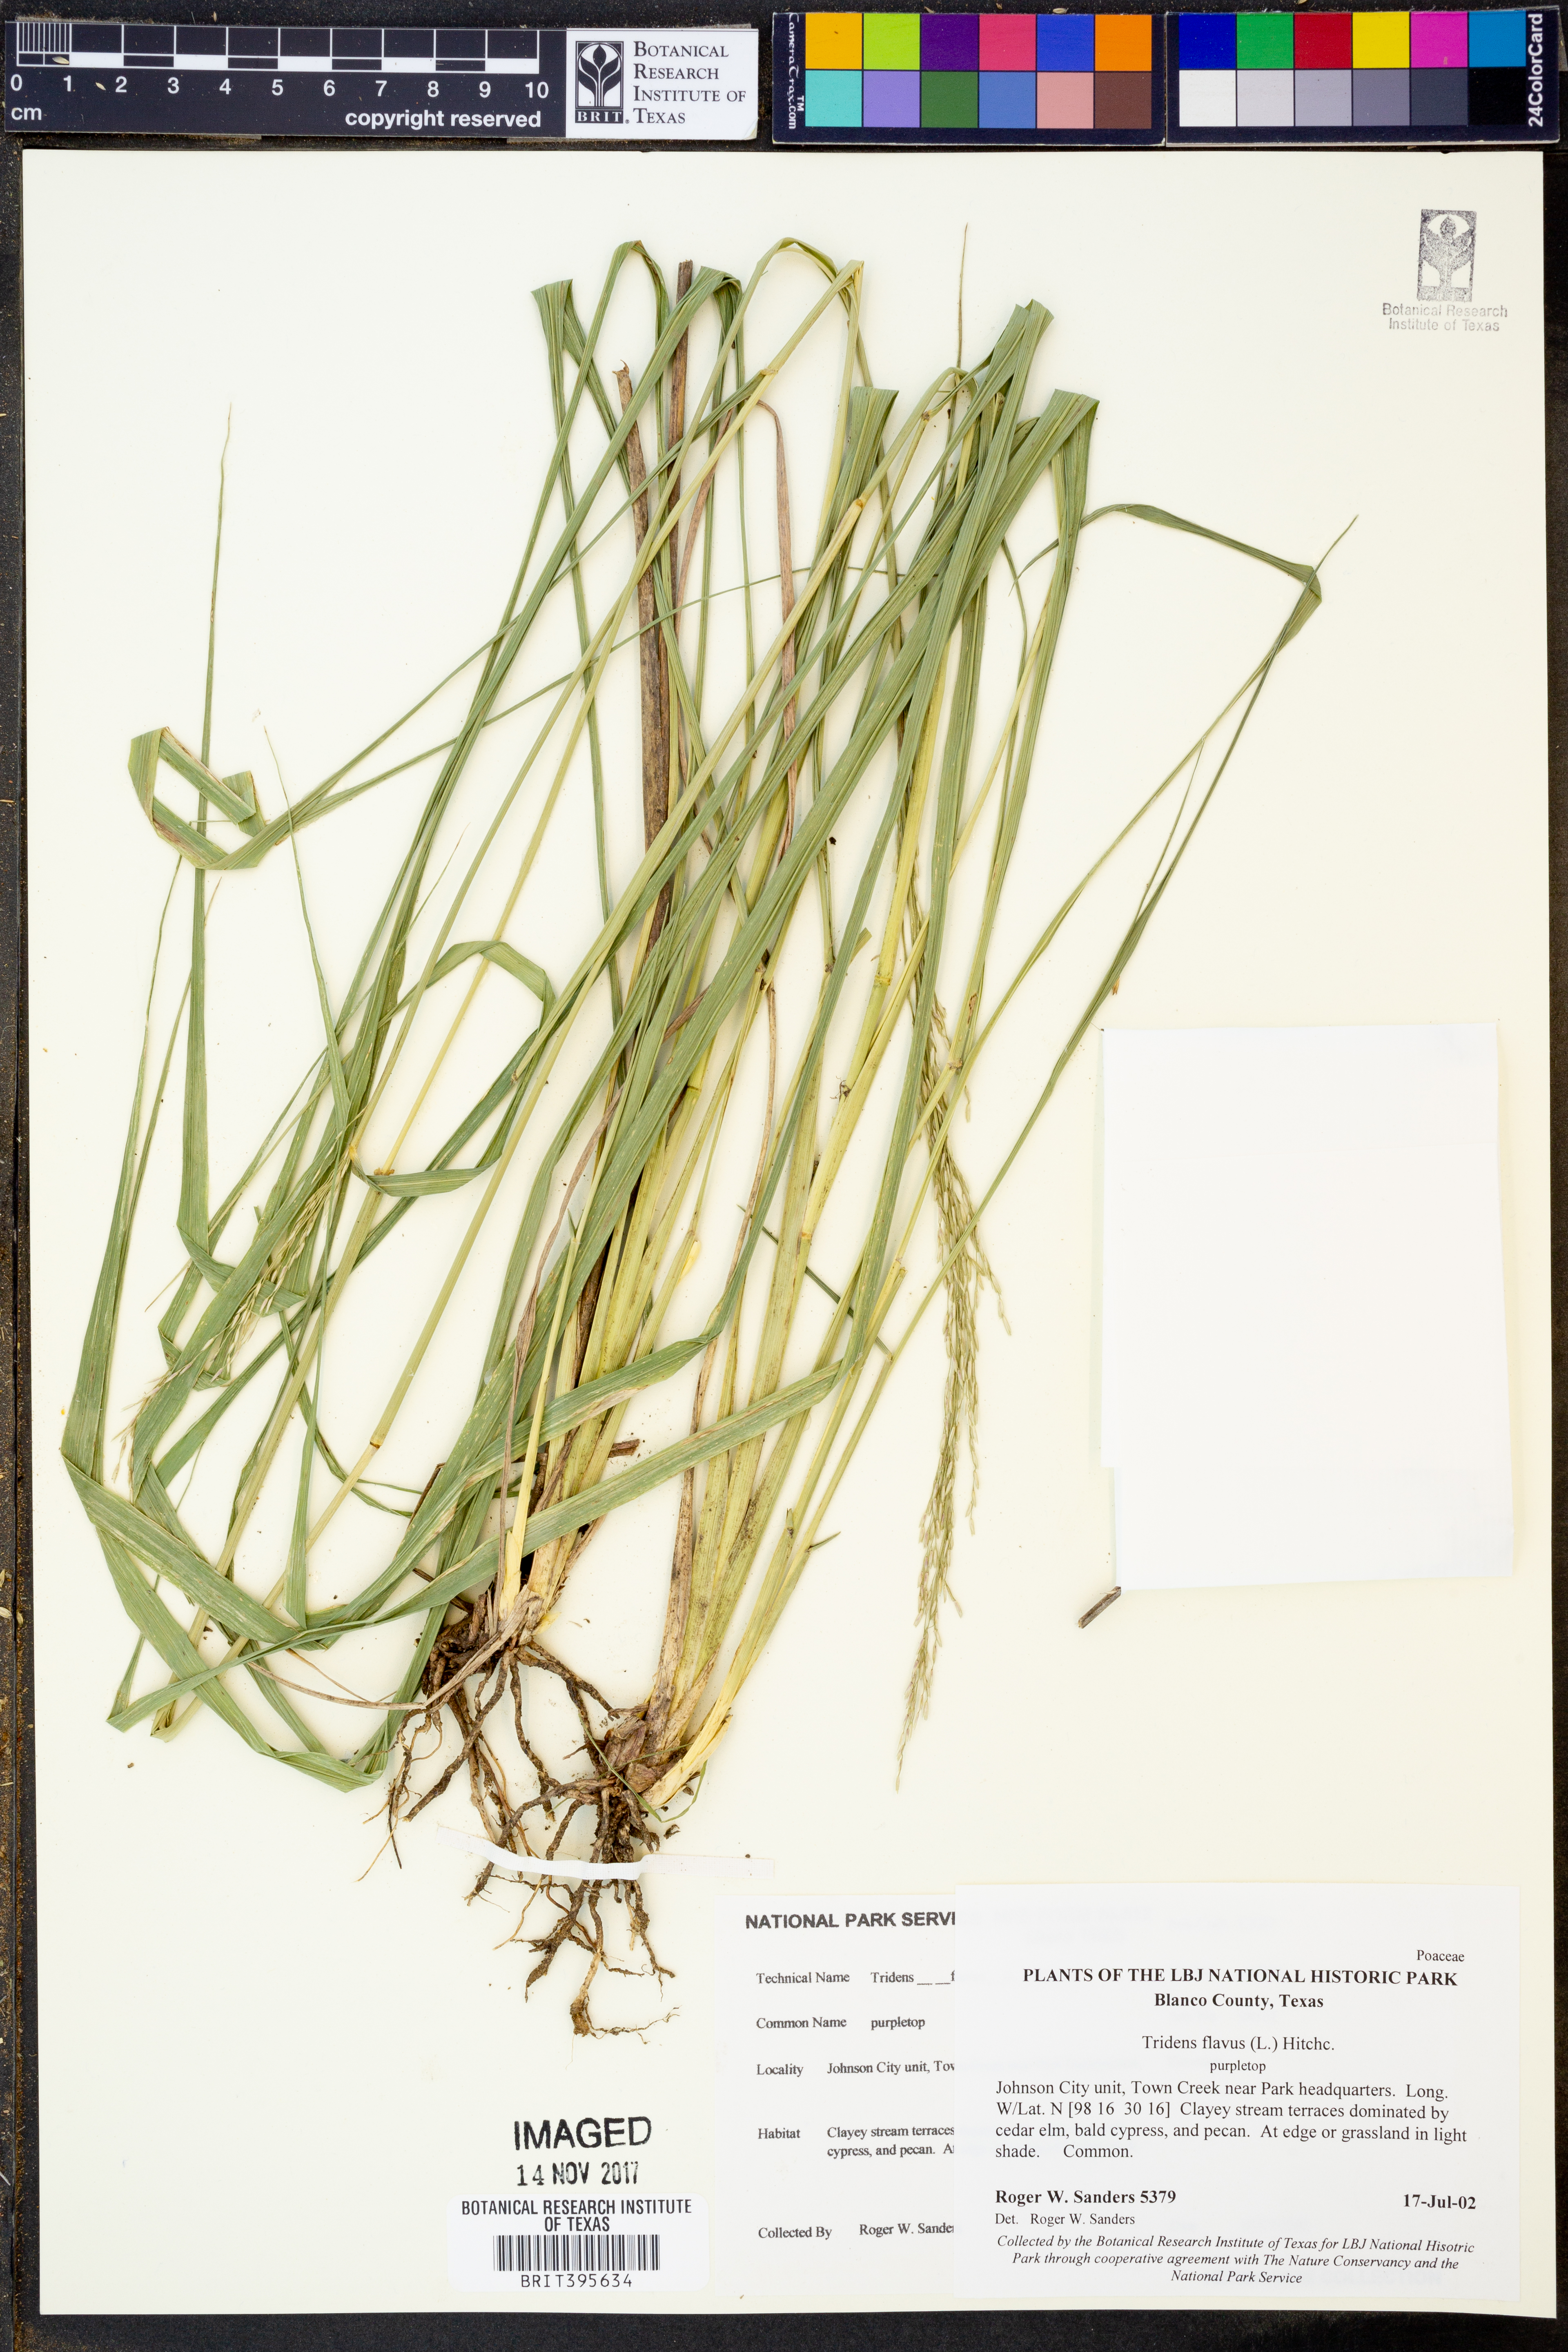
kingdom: Plantae
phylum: Tracheophyta
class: Liliopsida
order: Poales
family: Poaceae
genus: Tridens
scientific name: Tridens flavus
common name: Purpletop
